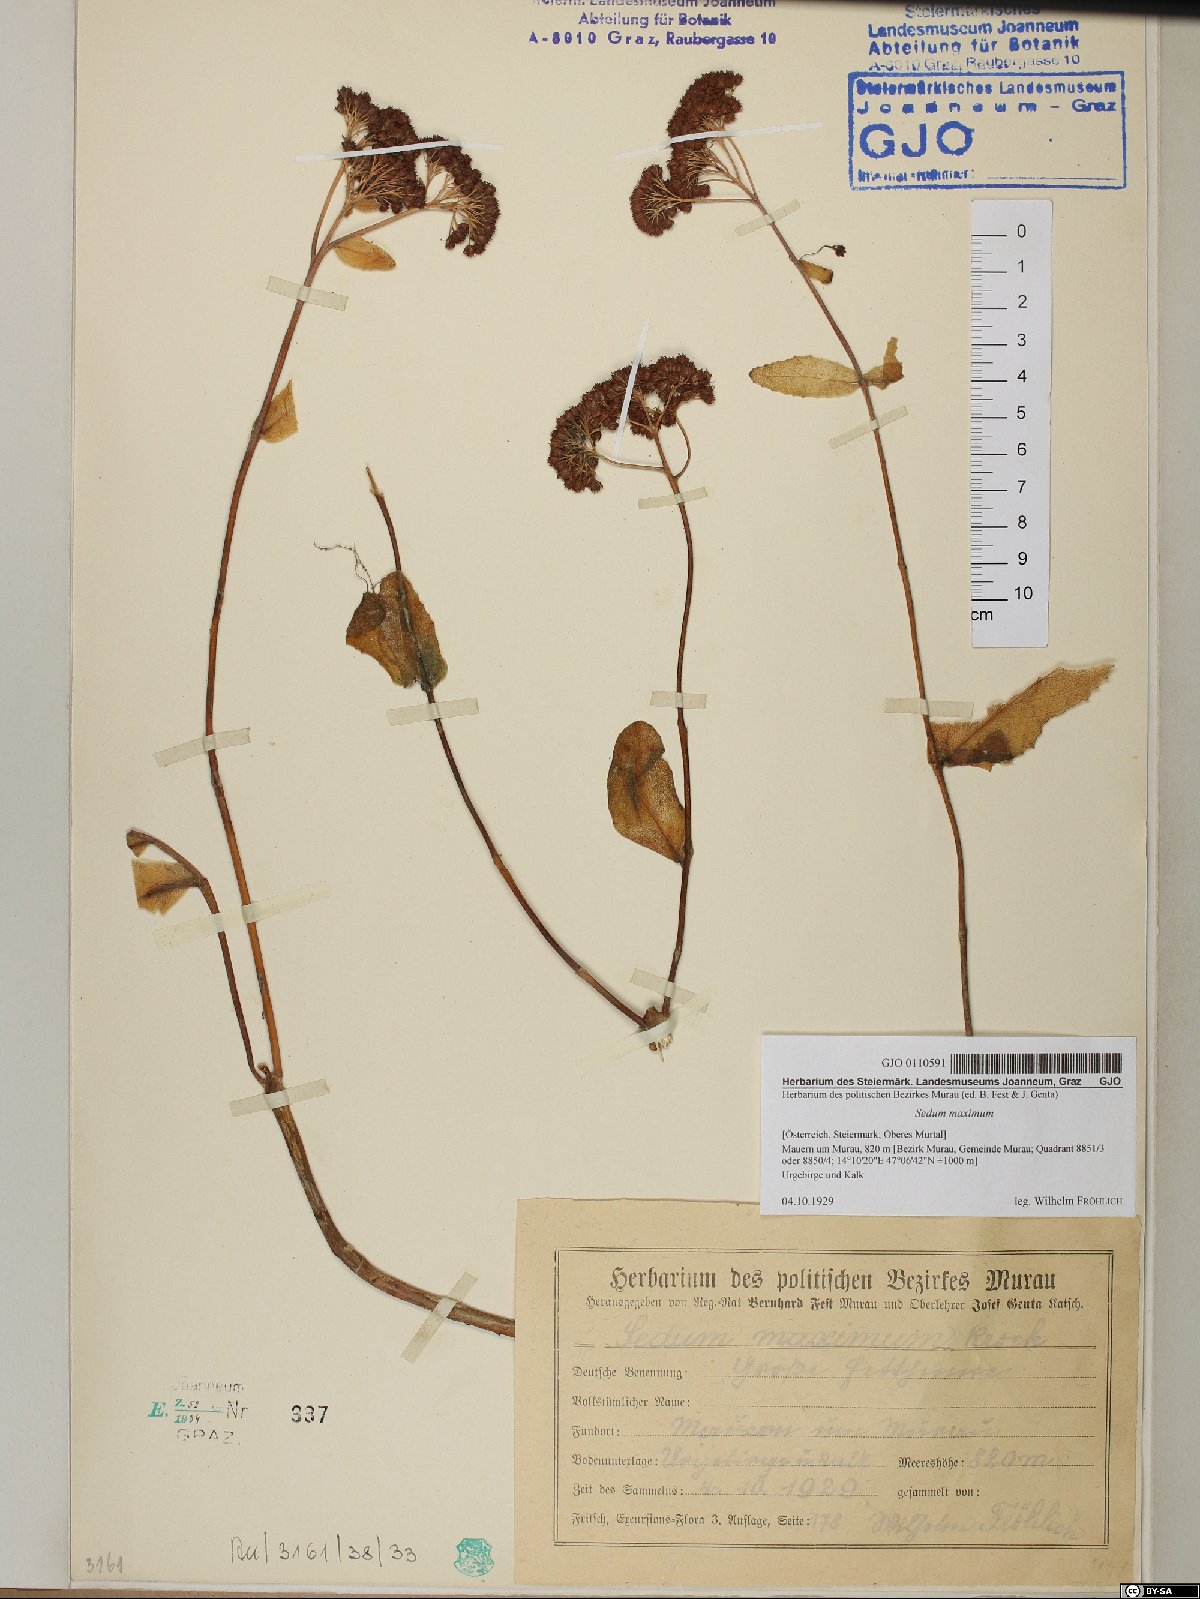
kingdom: Plantae
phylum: Tracheophyta
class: Magnoliopsida
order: Saxifragales
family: Crassulaceae
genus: Hylotelephium
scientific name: Hylotelephium maximum
